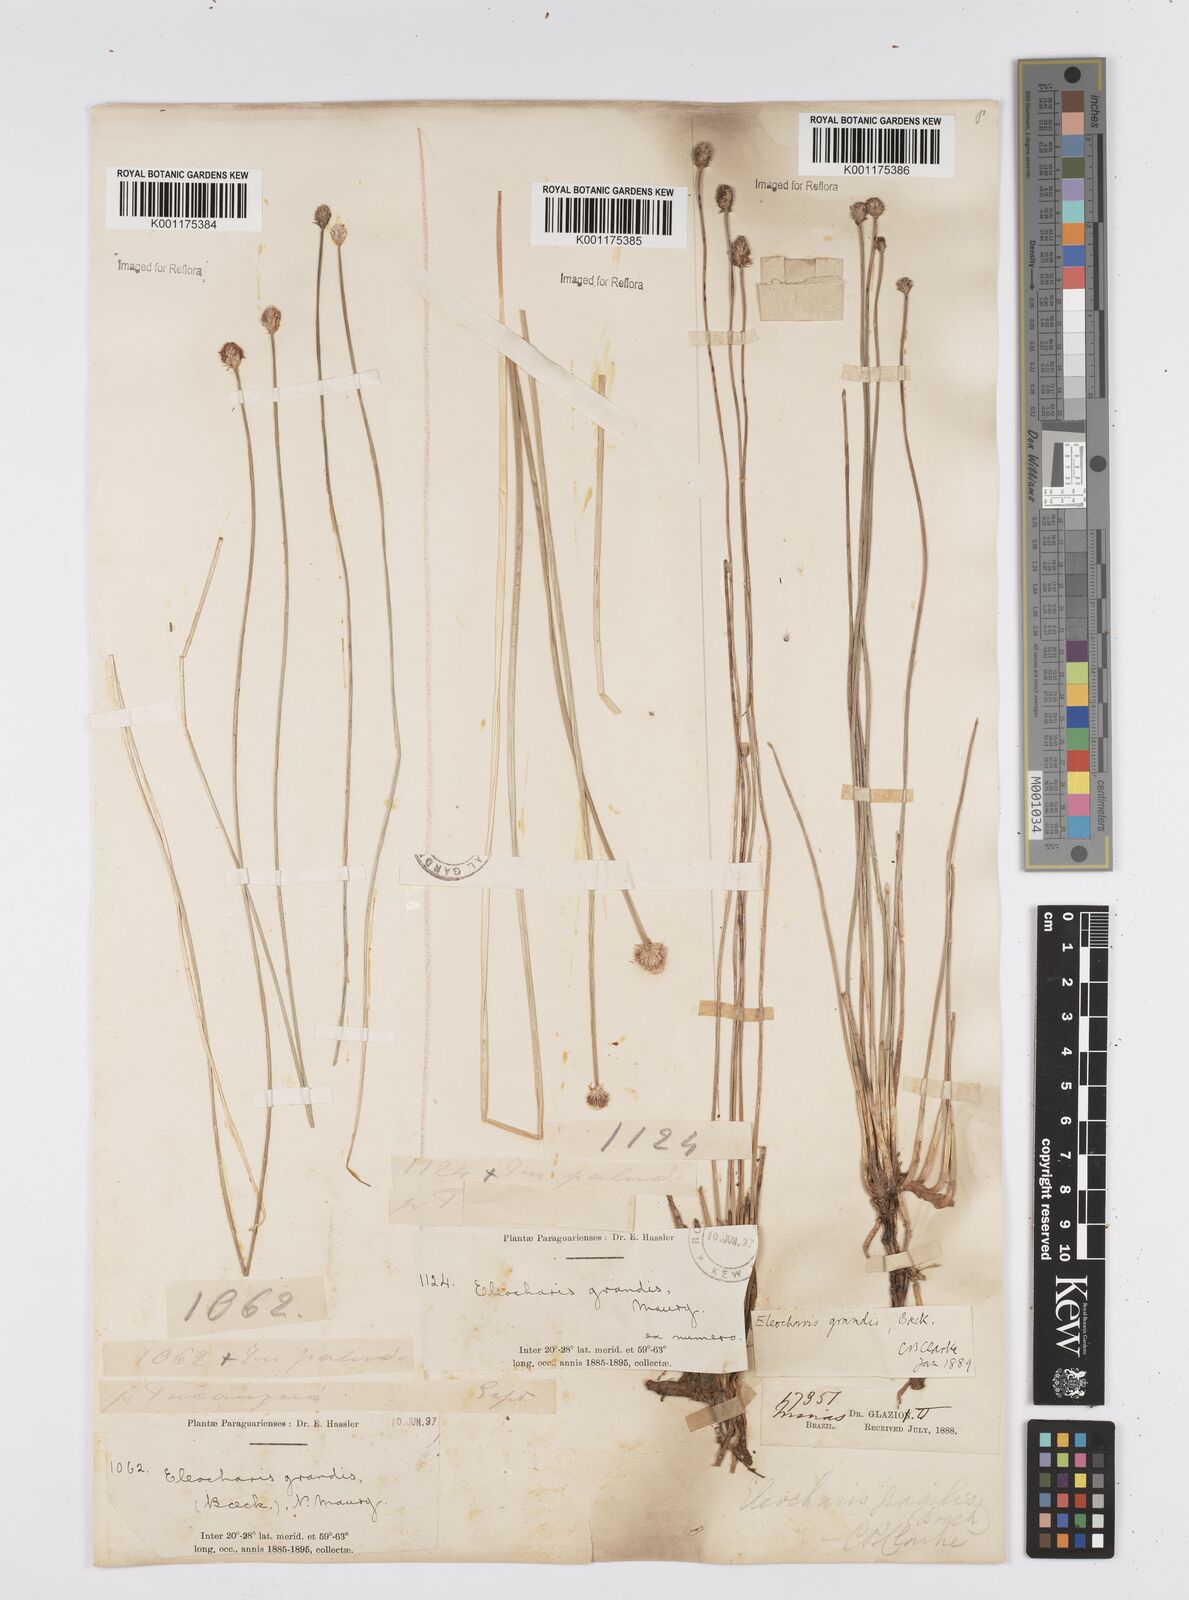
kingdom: Plantae
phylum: Tracheophyta
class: Liliopsida
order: Poales
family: Cyperaceae
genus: Eleocharis
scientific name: Eleocharis nudipes
